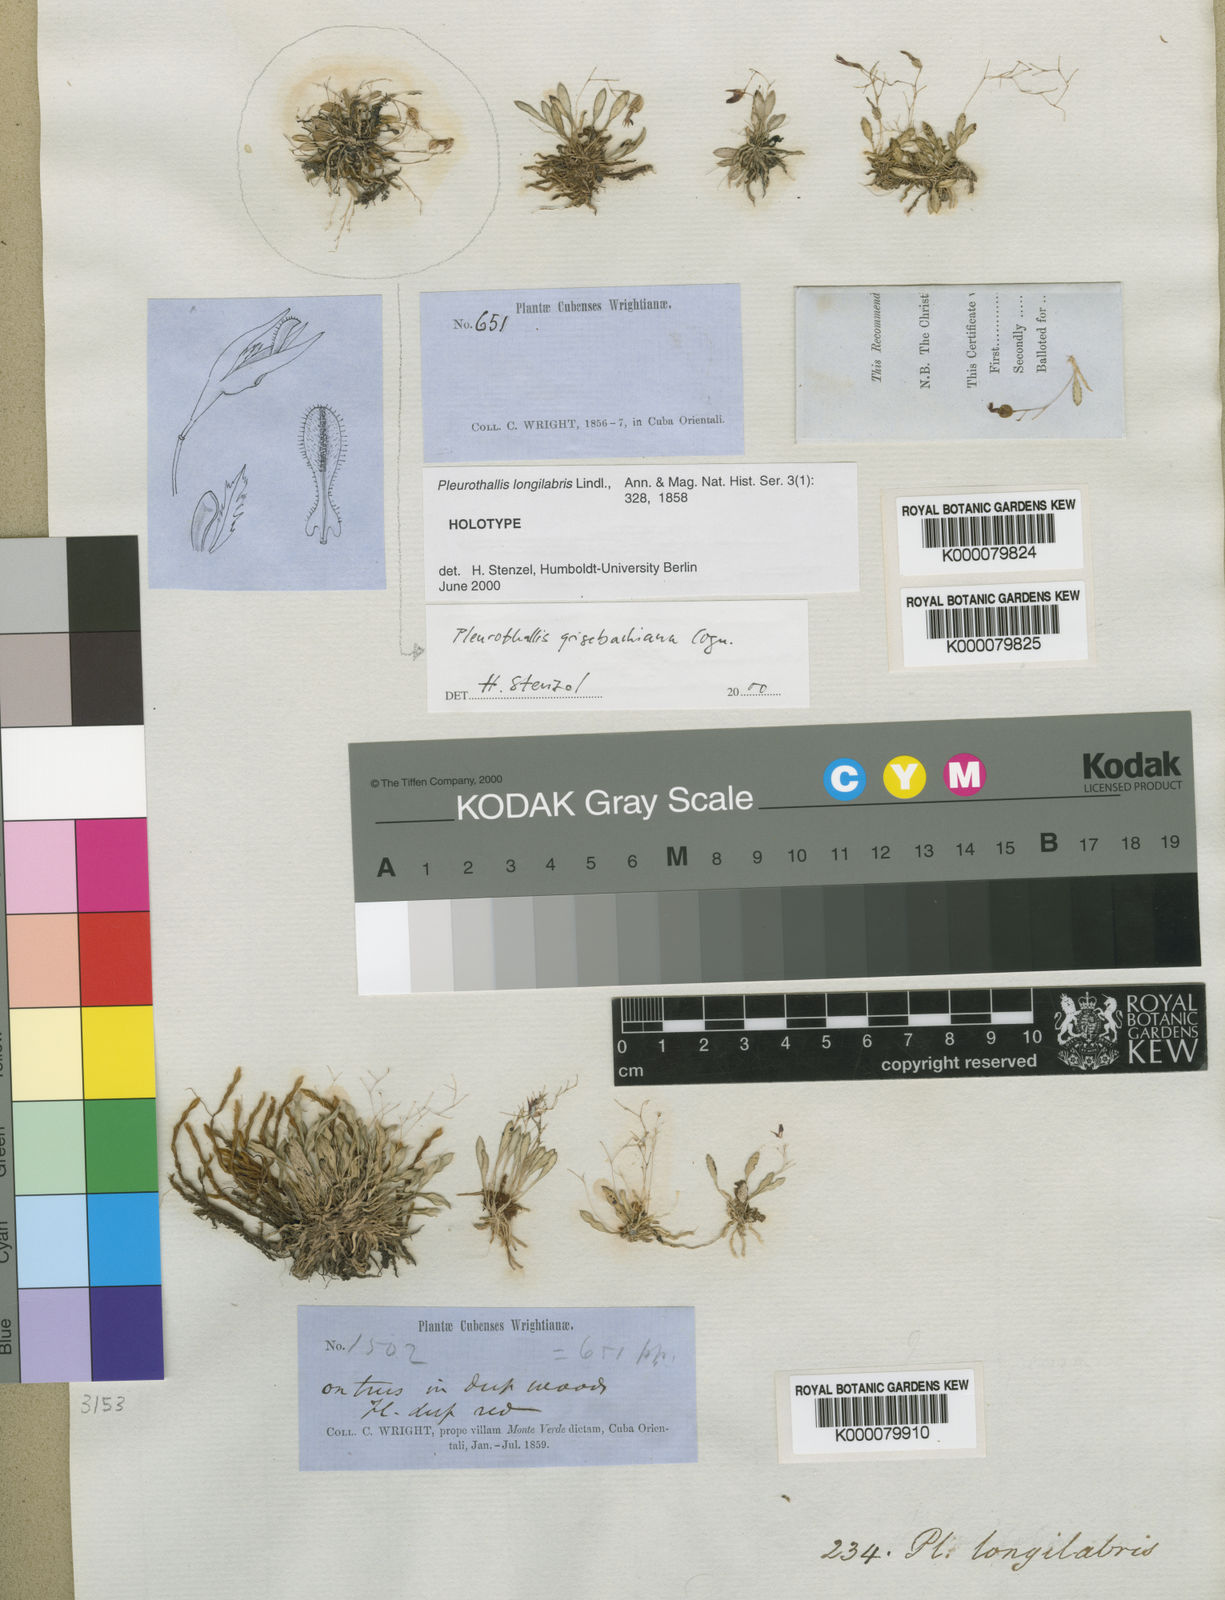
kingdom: Plantae
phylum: Tracheophyta
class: Liliopsida
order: Asparagales
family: Orchidaceae
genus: Muscarella
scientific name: Muscarella longilabris
